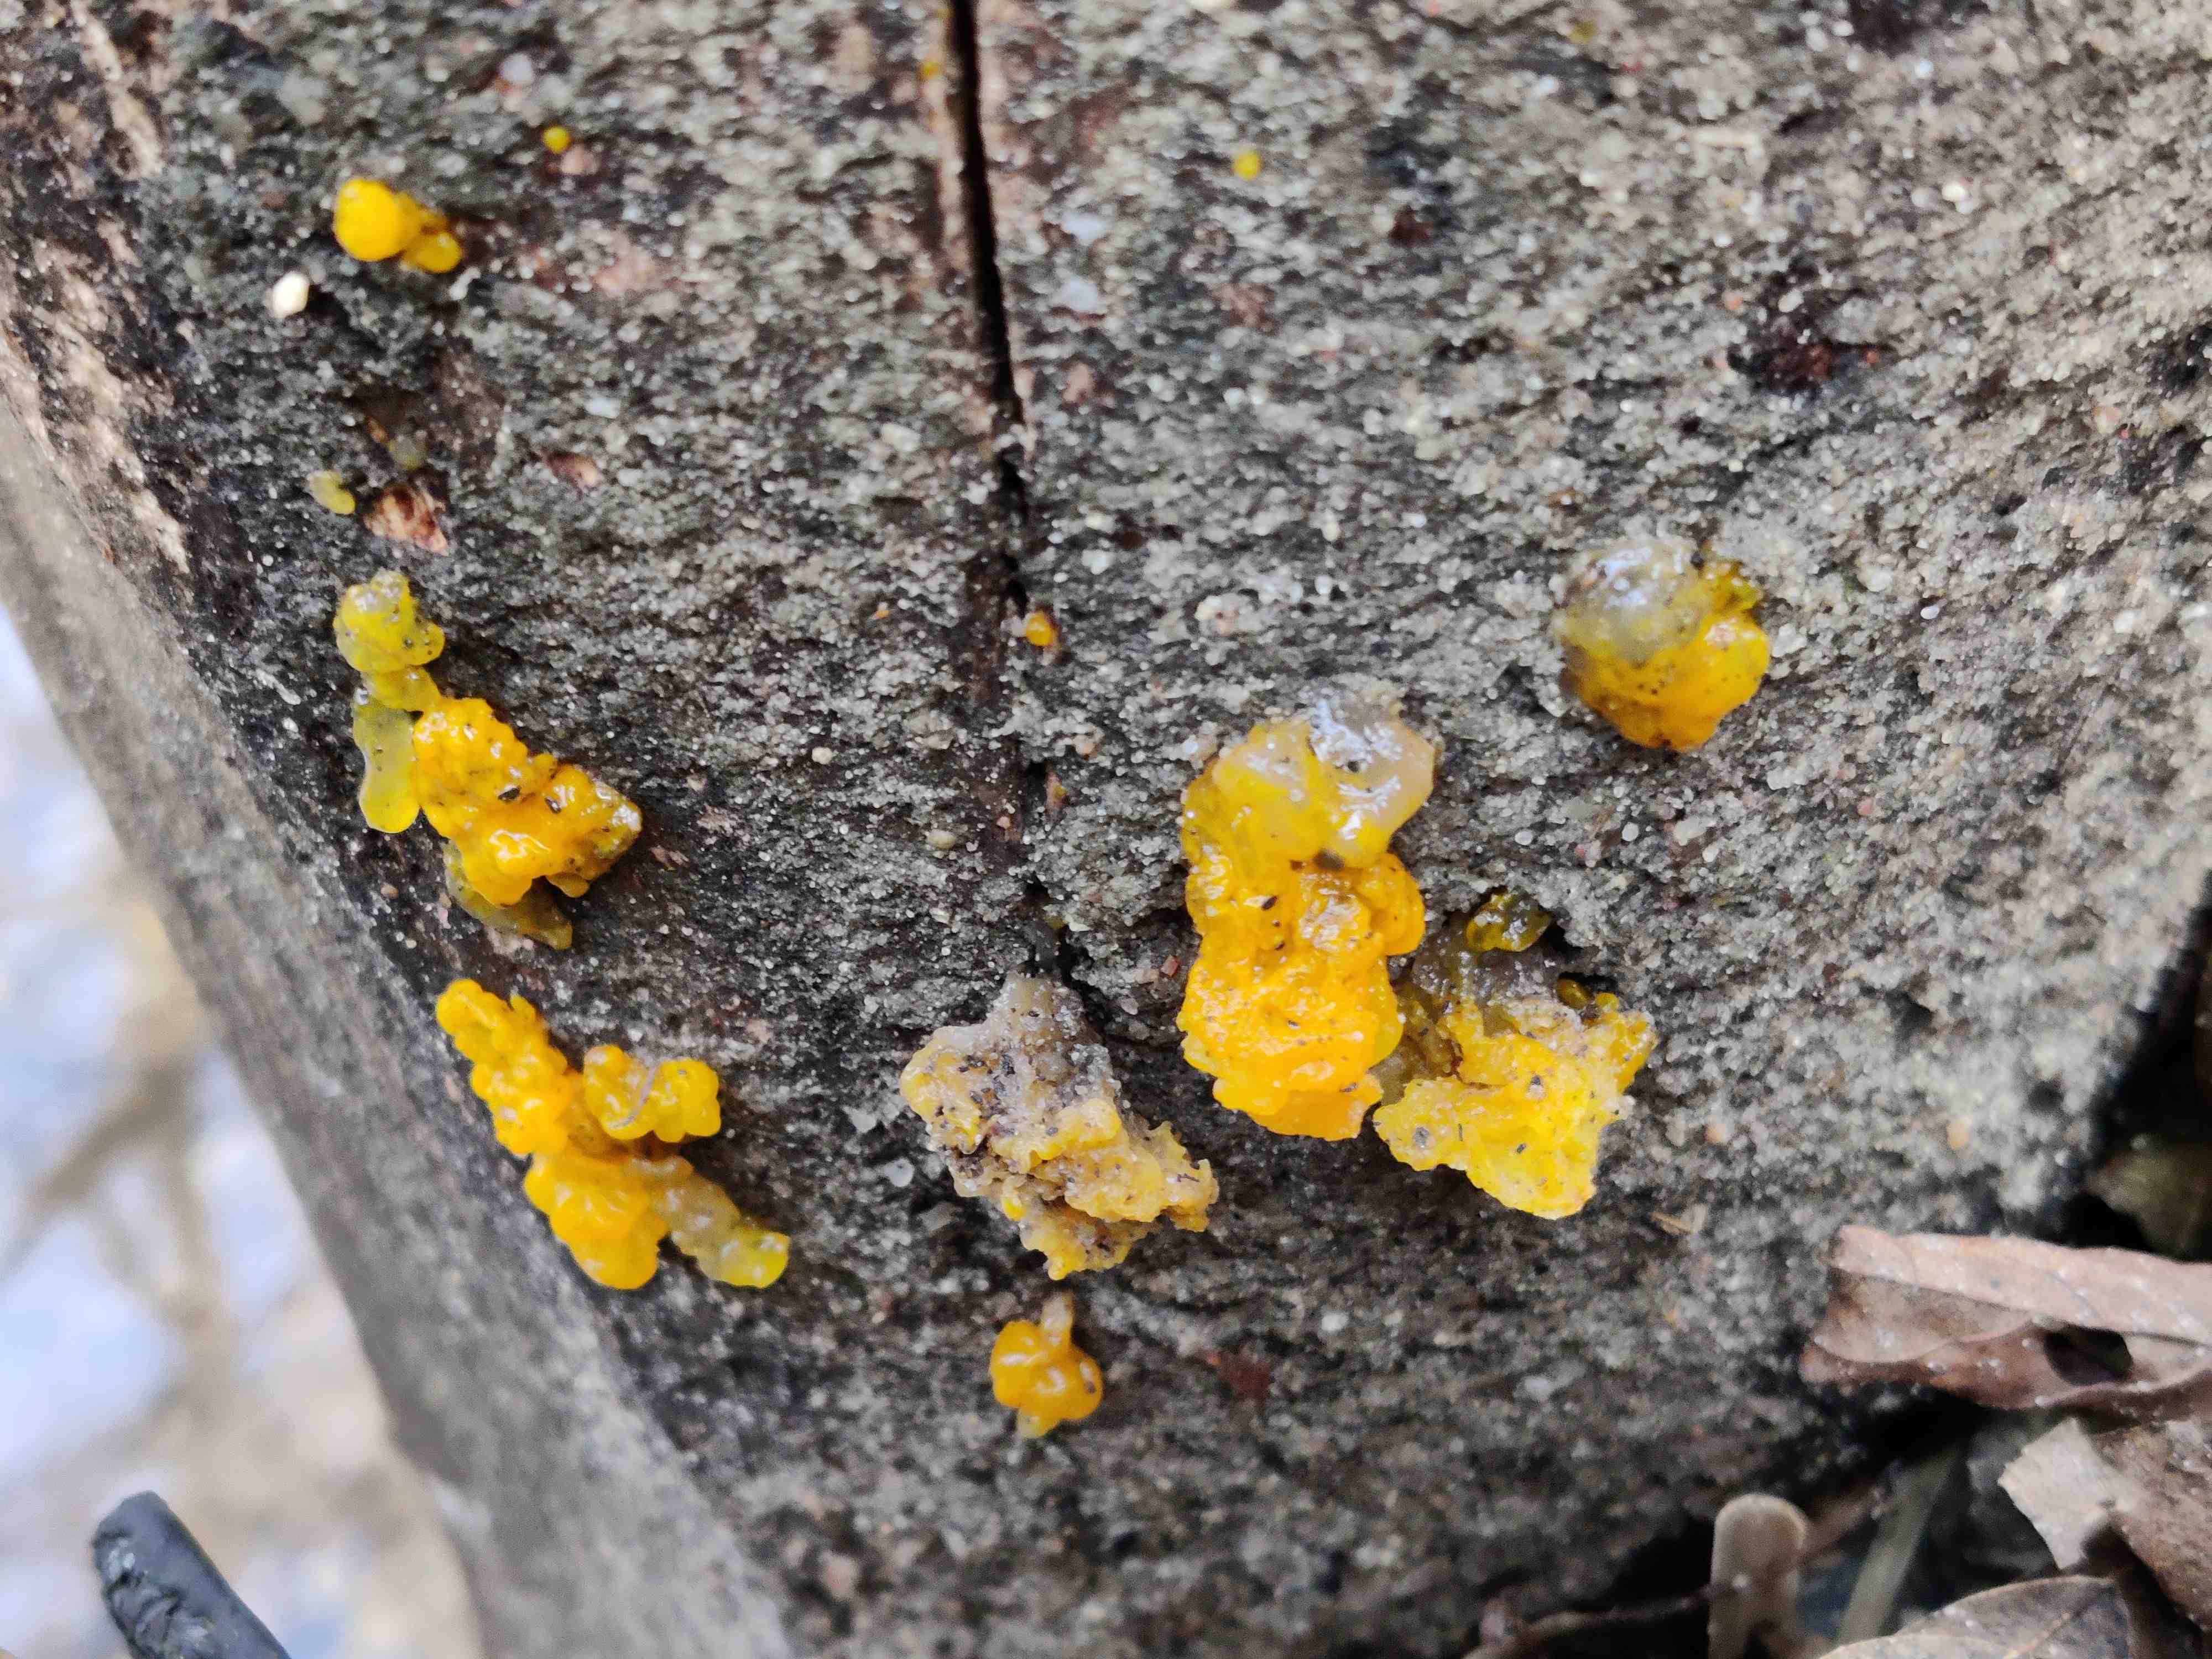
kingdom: Fungi
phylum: Basidiomycota
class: Tremellomycetes
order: Tremellales
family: Tremellaceae
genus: Tremella
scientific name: Tremella mesenterica
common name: gul bævresvamp
